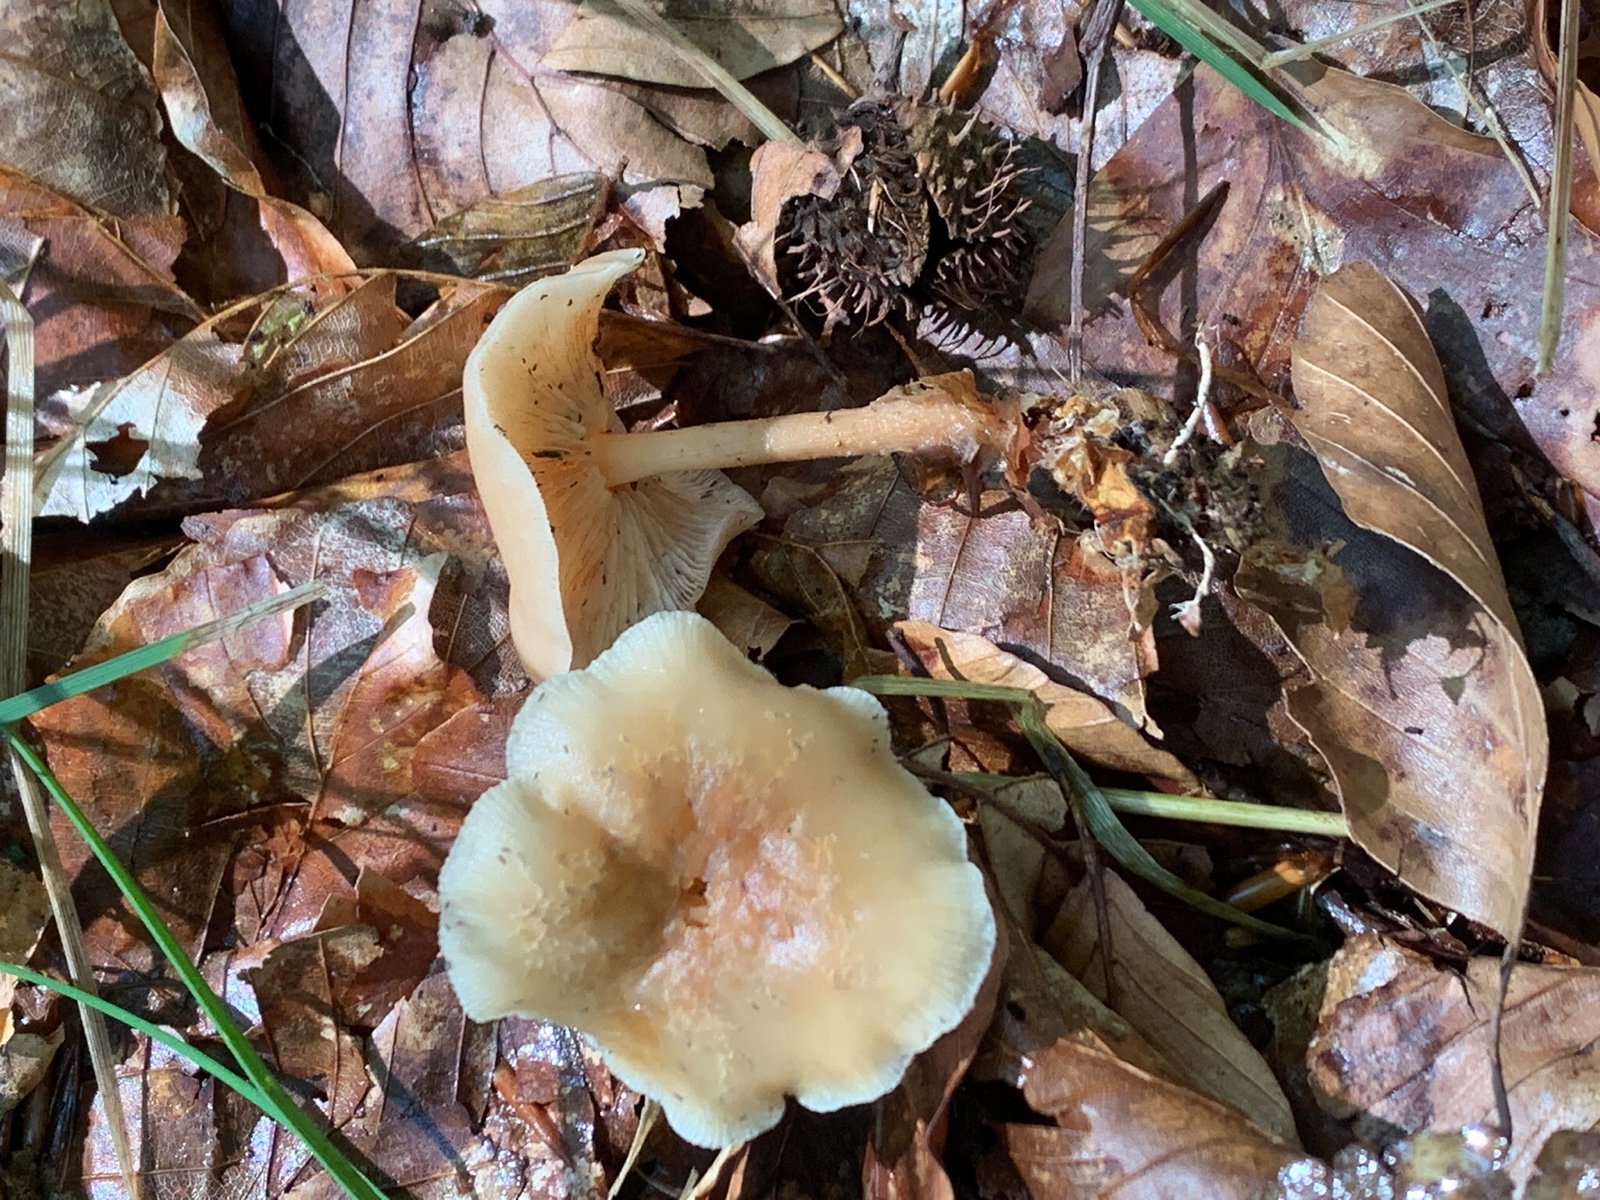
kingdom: Fungi
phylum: Basidiomycota
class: Agaricomycetes
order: Agaricales
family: Omphalotaceae
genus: Gymnopus
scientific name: Gymnopus dryophilus
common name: løv-fladhat
